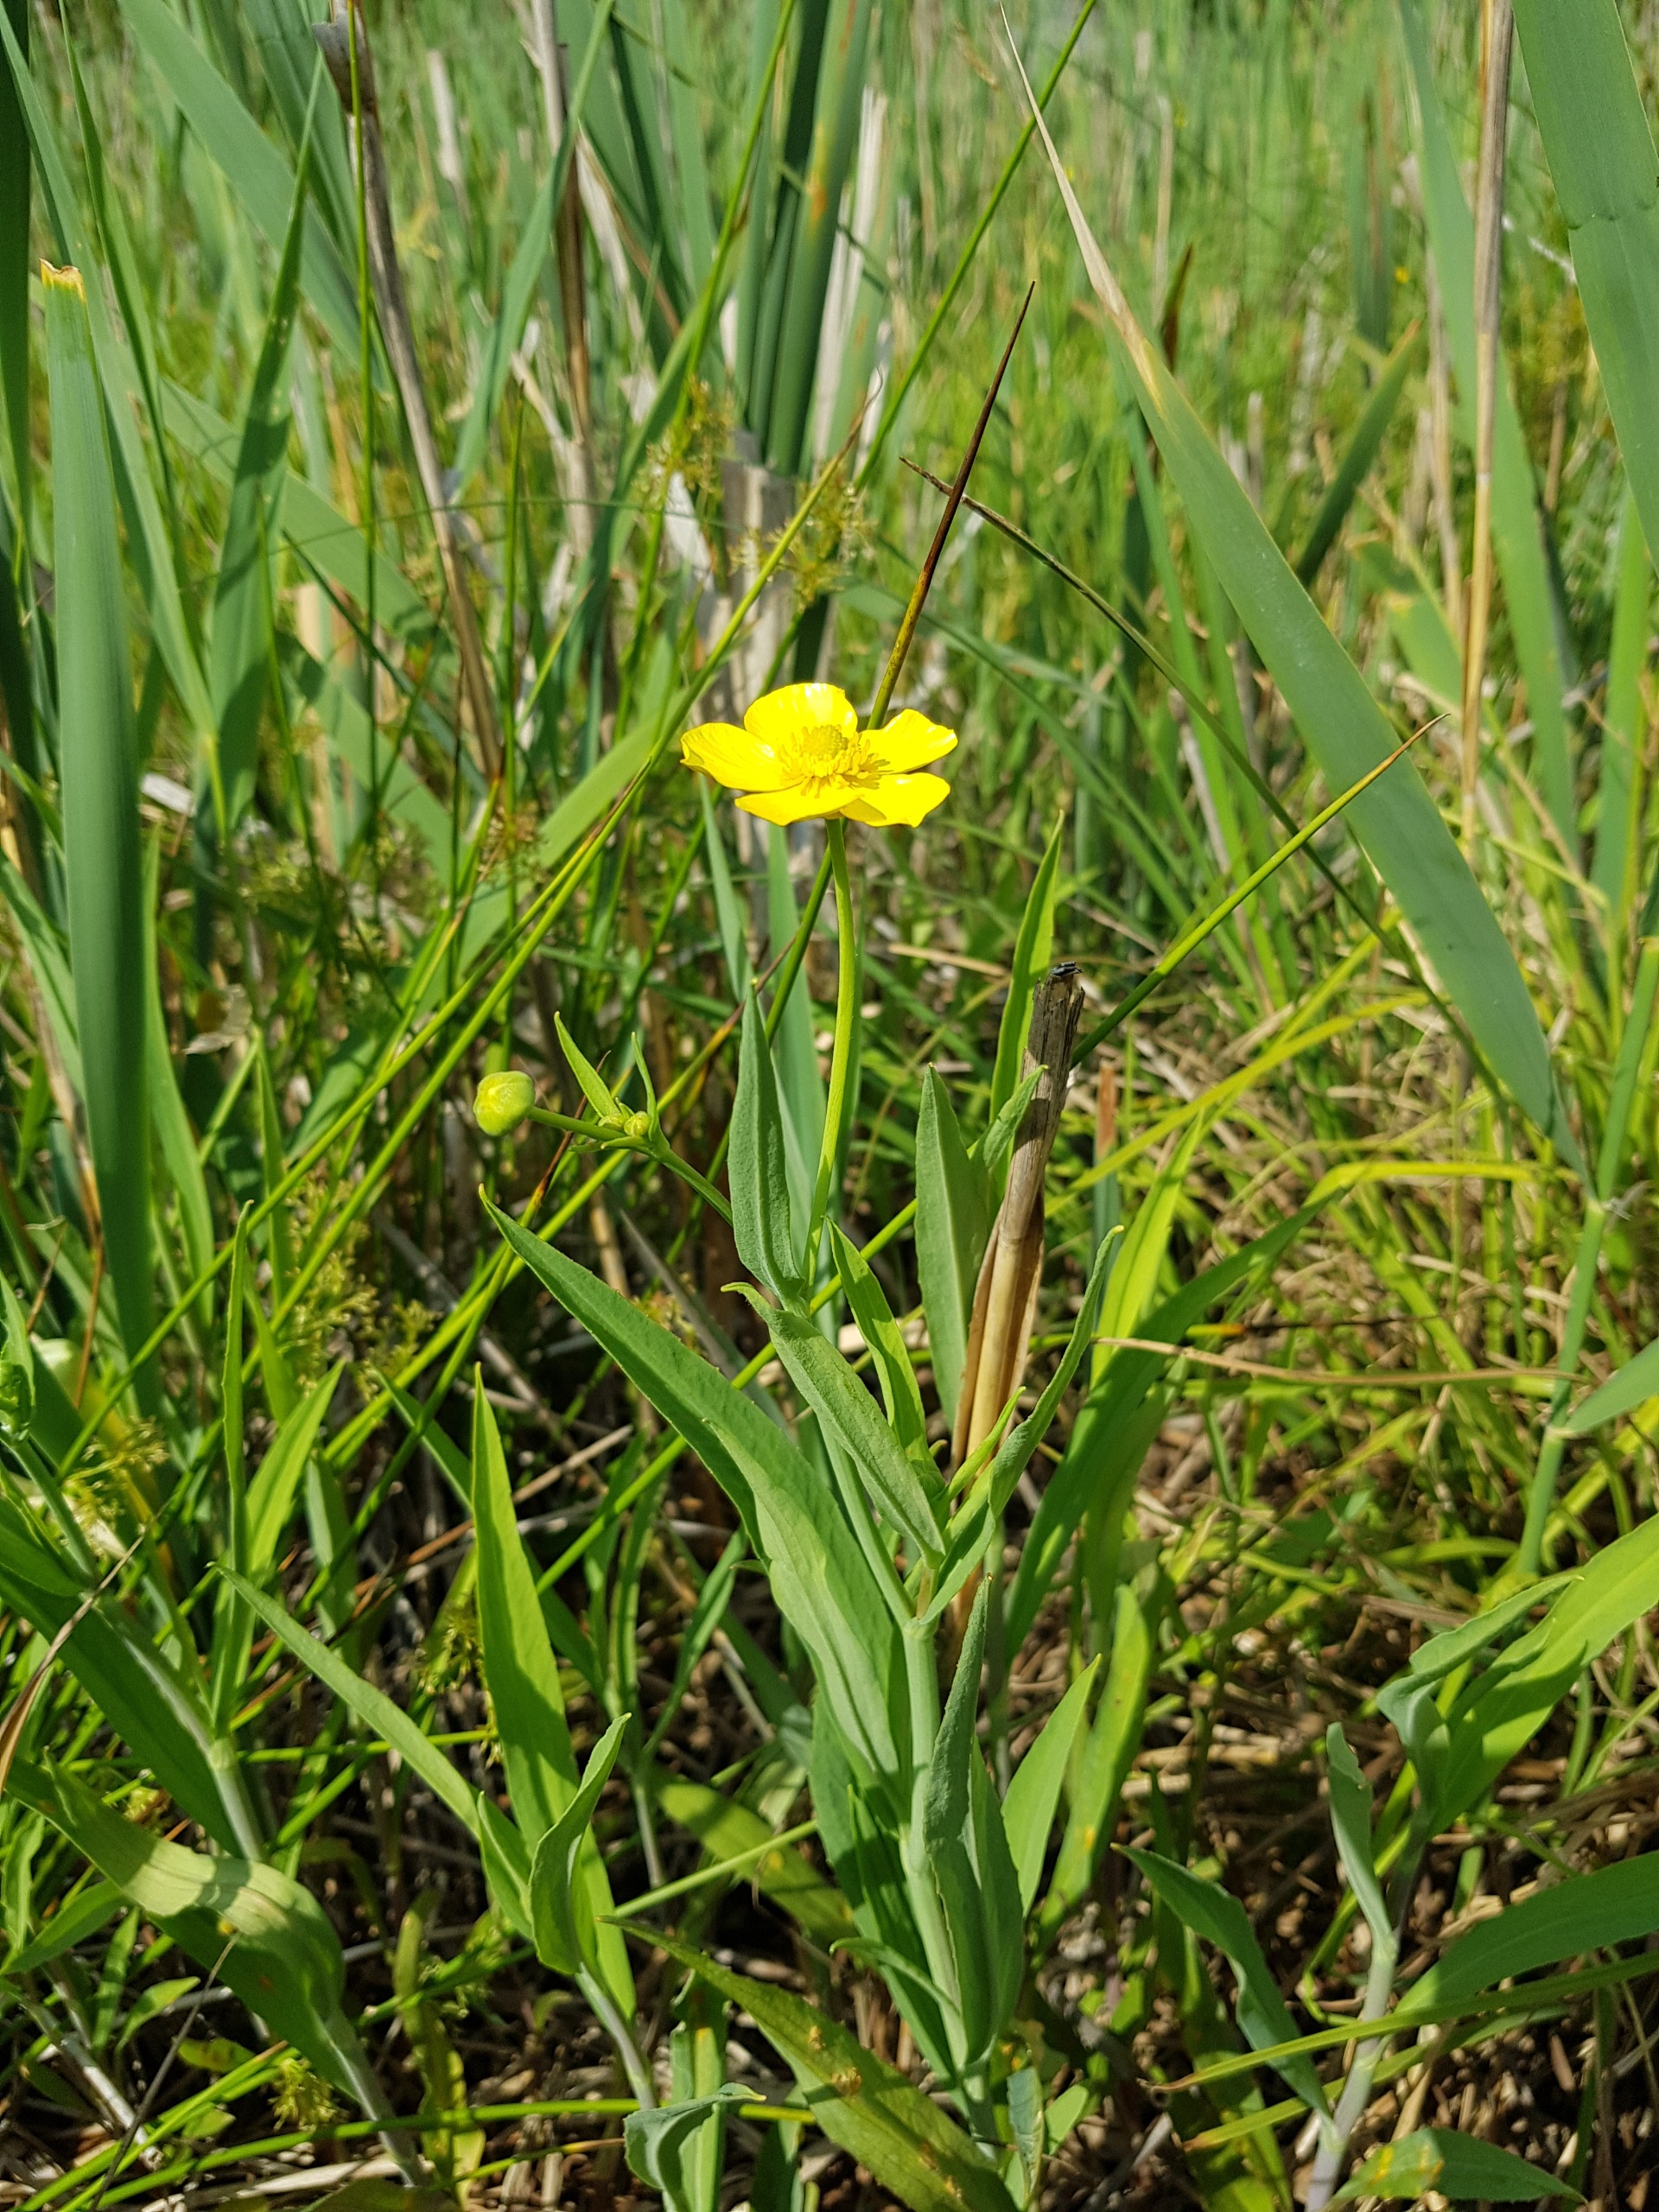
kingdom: Plantae
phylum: Tracheophyta
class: Magnoliopsida
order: Ranunculales
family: Ranunculaceae
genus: Ranunculus
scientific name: Ranunculus lingua
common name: Langbladet ranunkel
